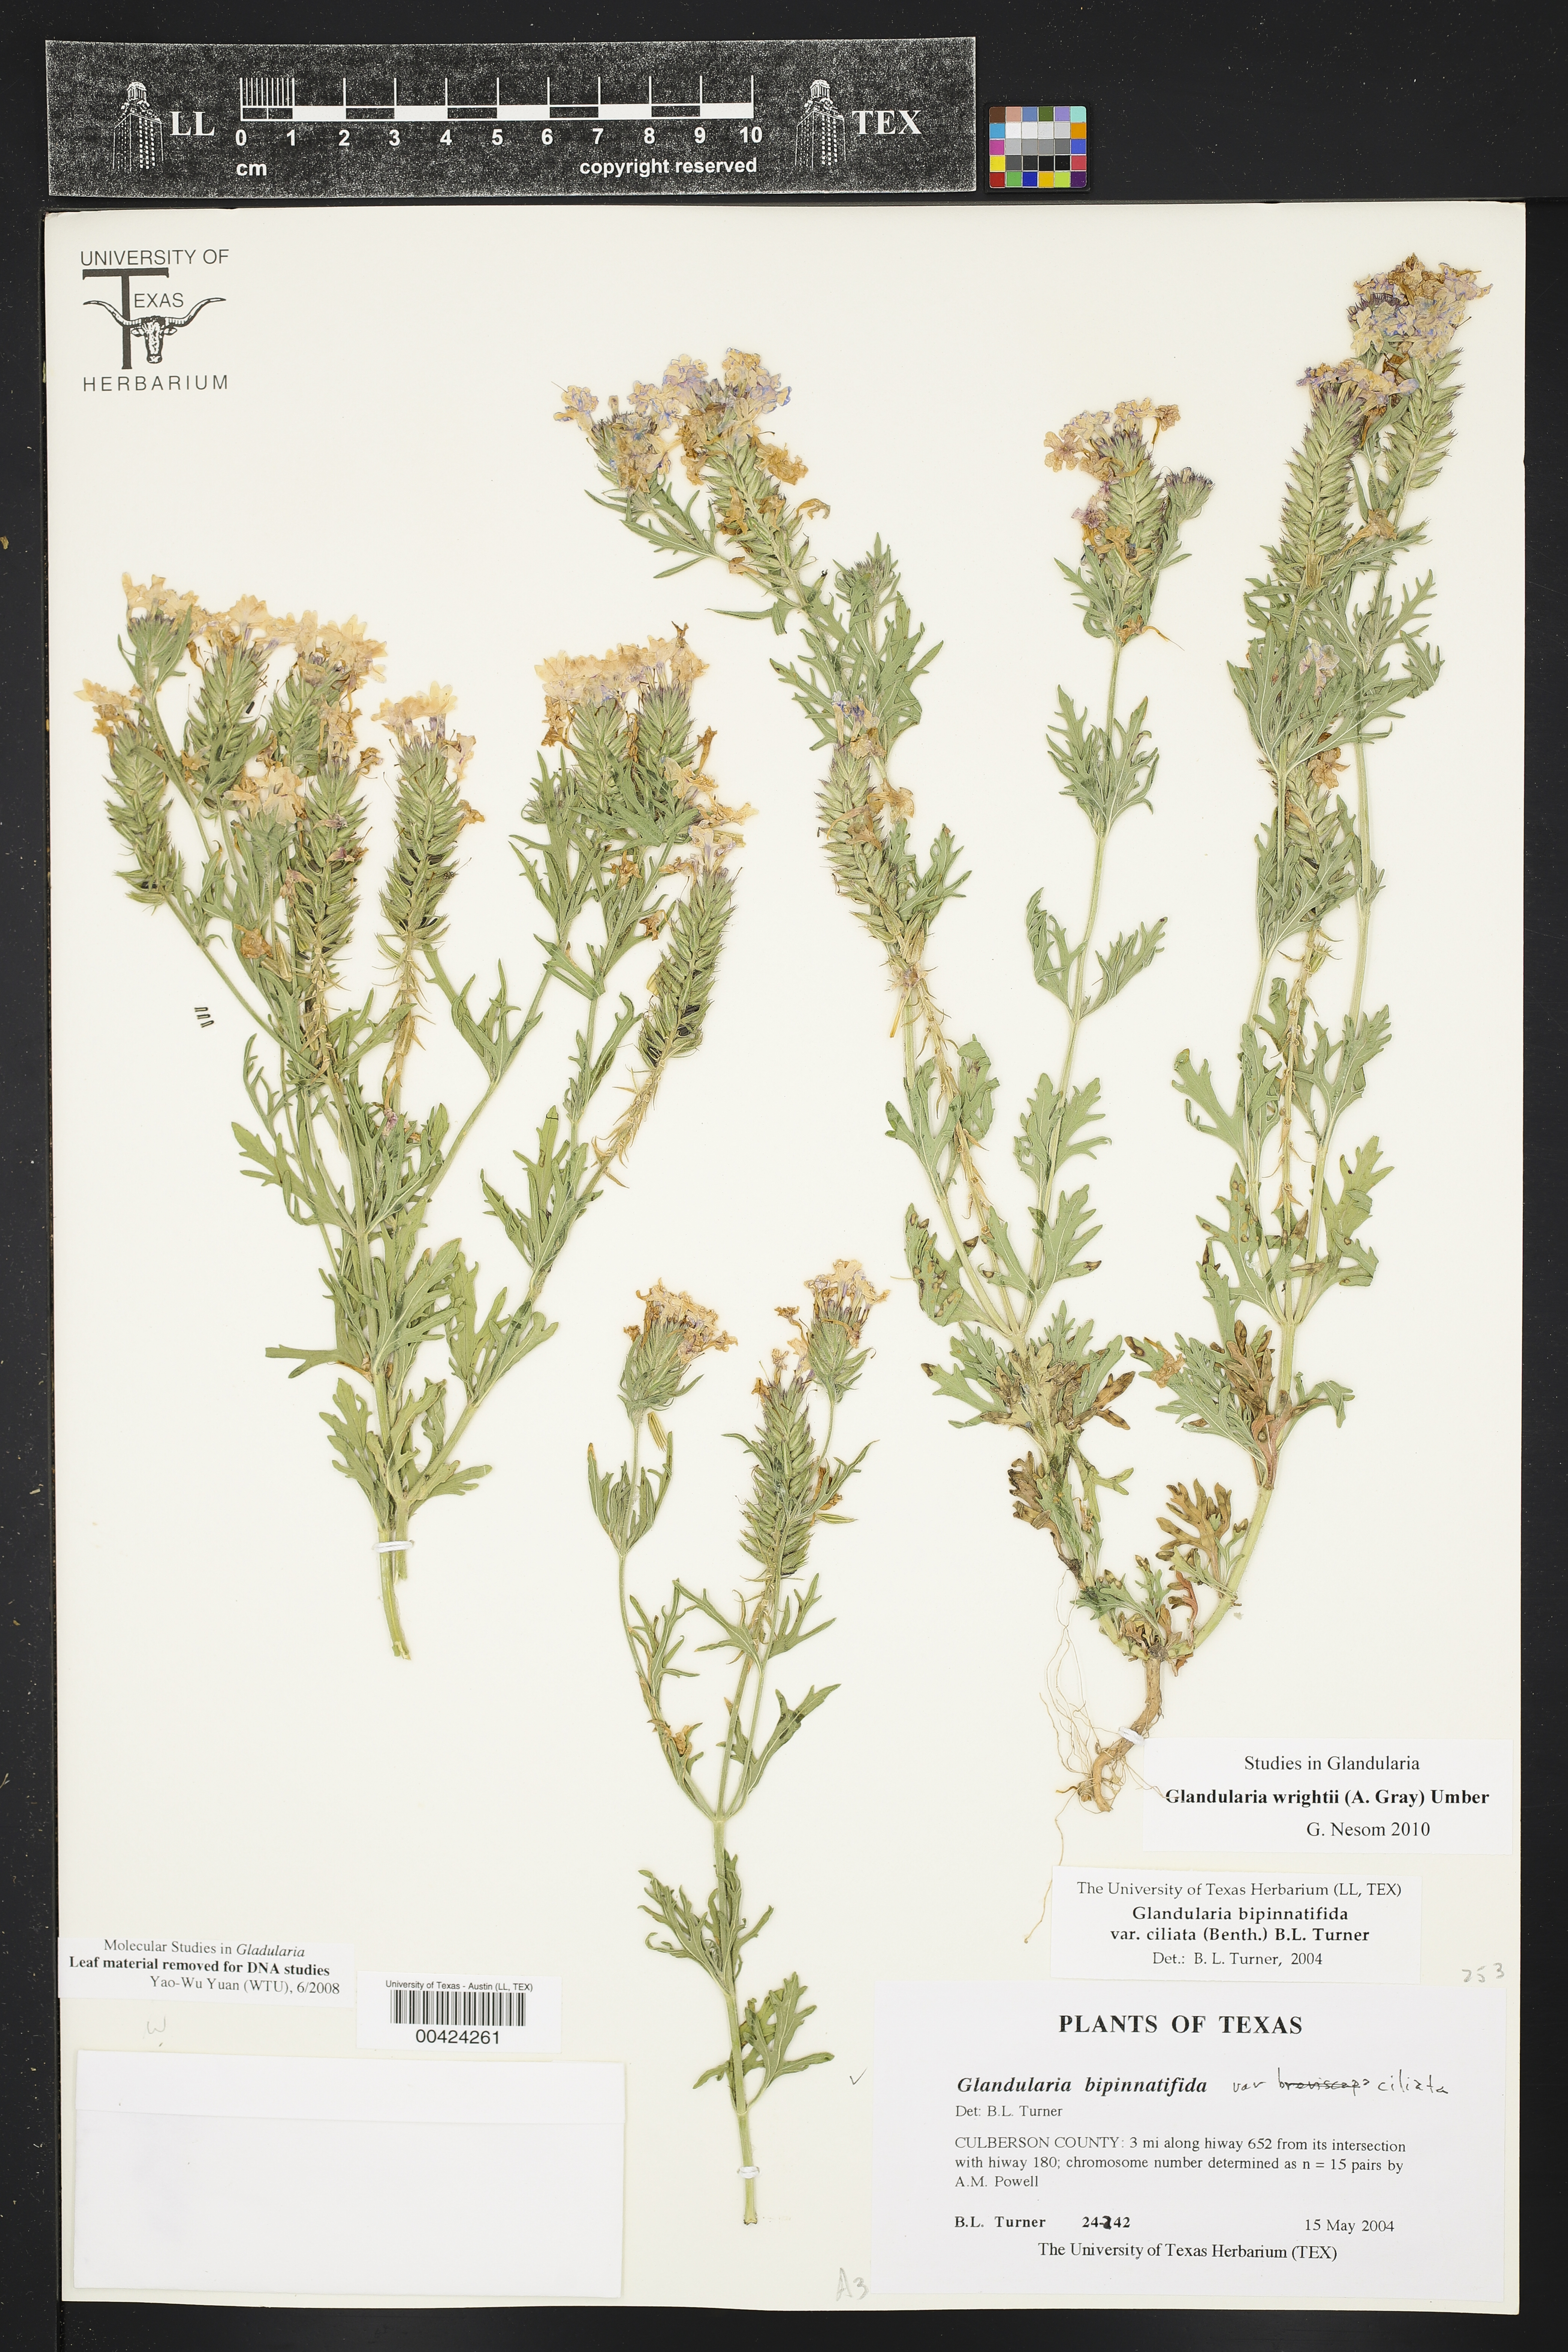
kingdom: Plantae
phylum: Tracheophyta
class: Magnoliopsida
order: Lamiales
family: Verbenaceae
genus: Verbena
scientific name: Verbena bipinnatifida
